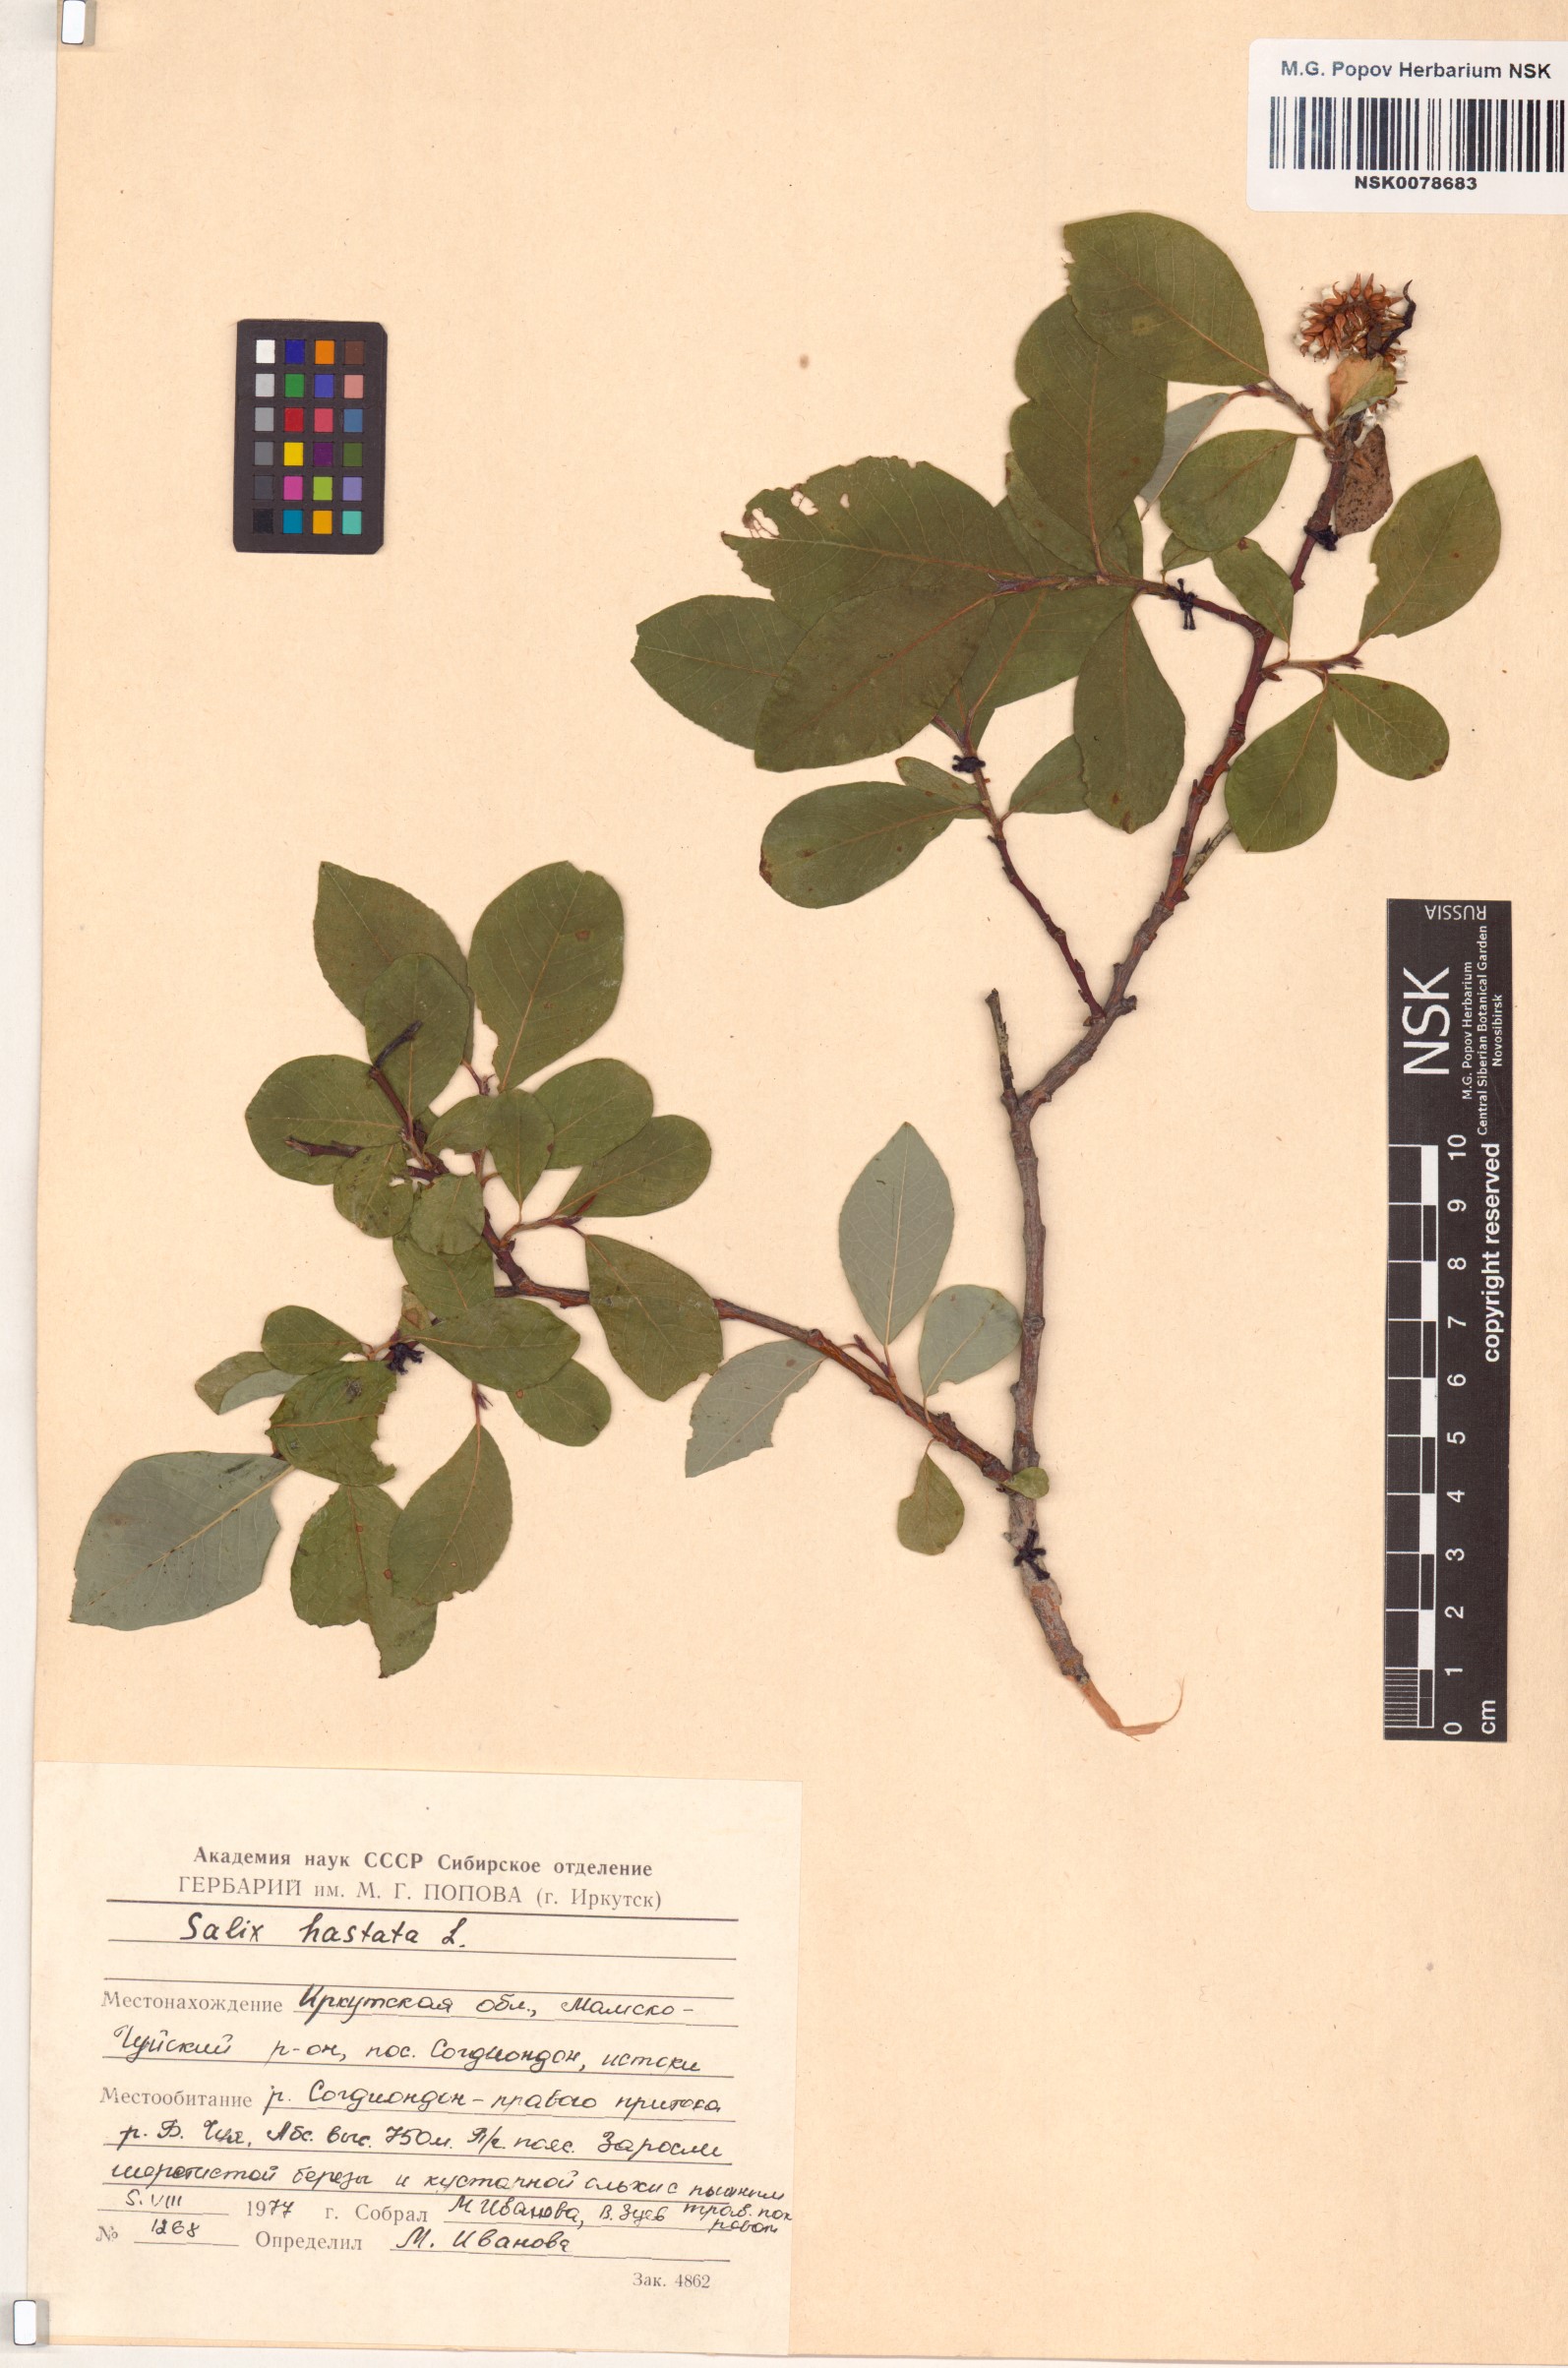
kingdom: Plantae
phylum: Tracheophyta
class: Magnoliopsida
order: Malpighiales
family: Salicaceae
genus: Salix
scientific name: Salix hastata
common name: Halberd willow
